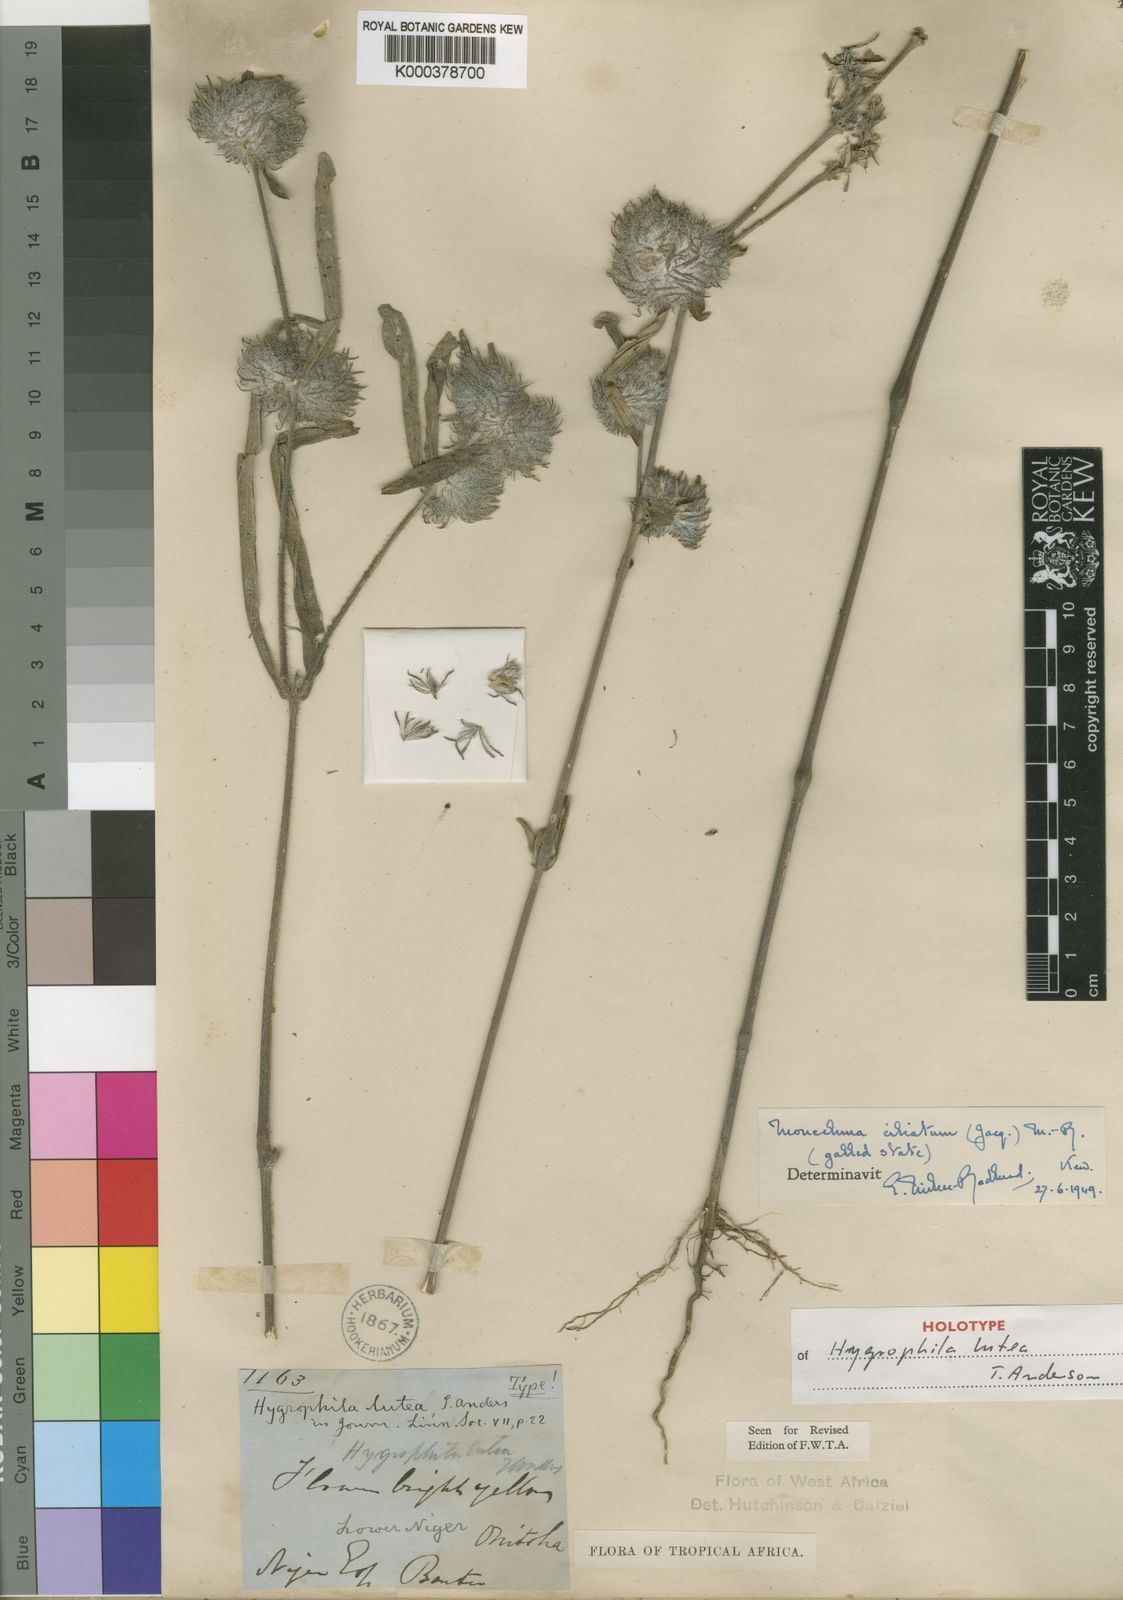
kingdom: Plantae
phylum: Tracheophyta
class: Magnoliopsida
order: Lamiales
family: Acanthaceae
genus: Pogonospermum
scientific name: Pogonospermum ciliare
